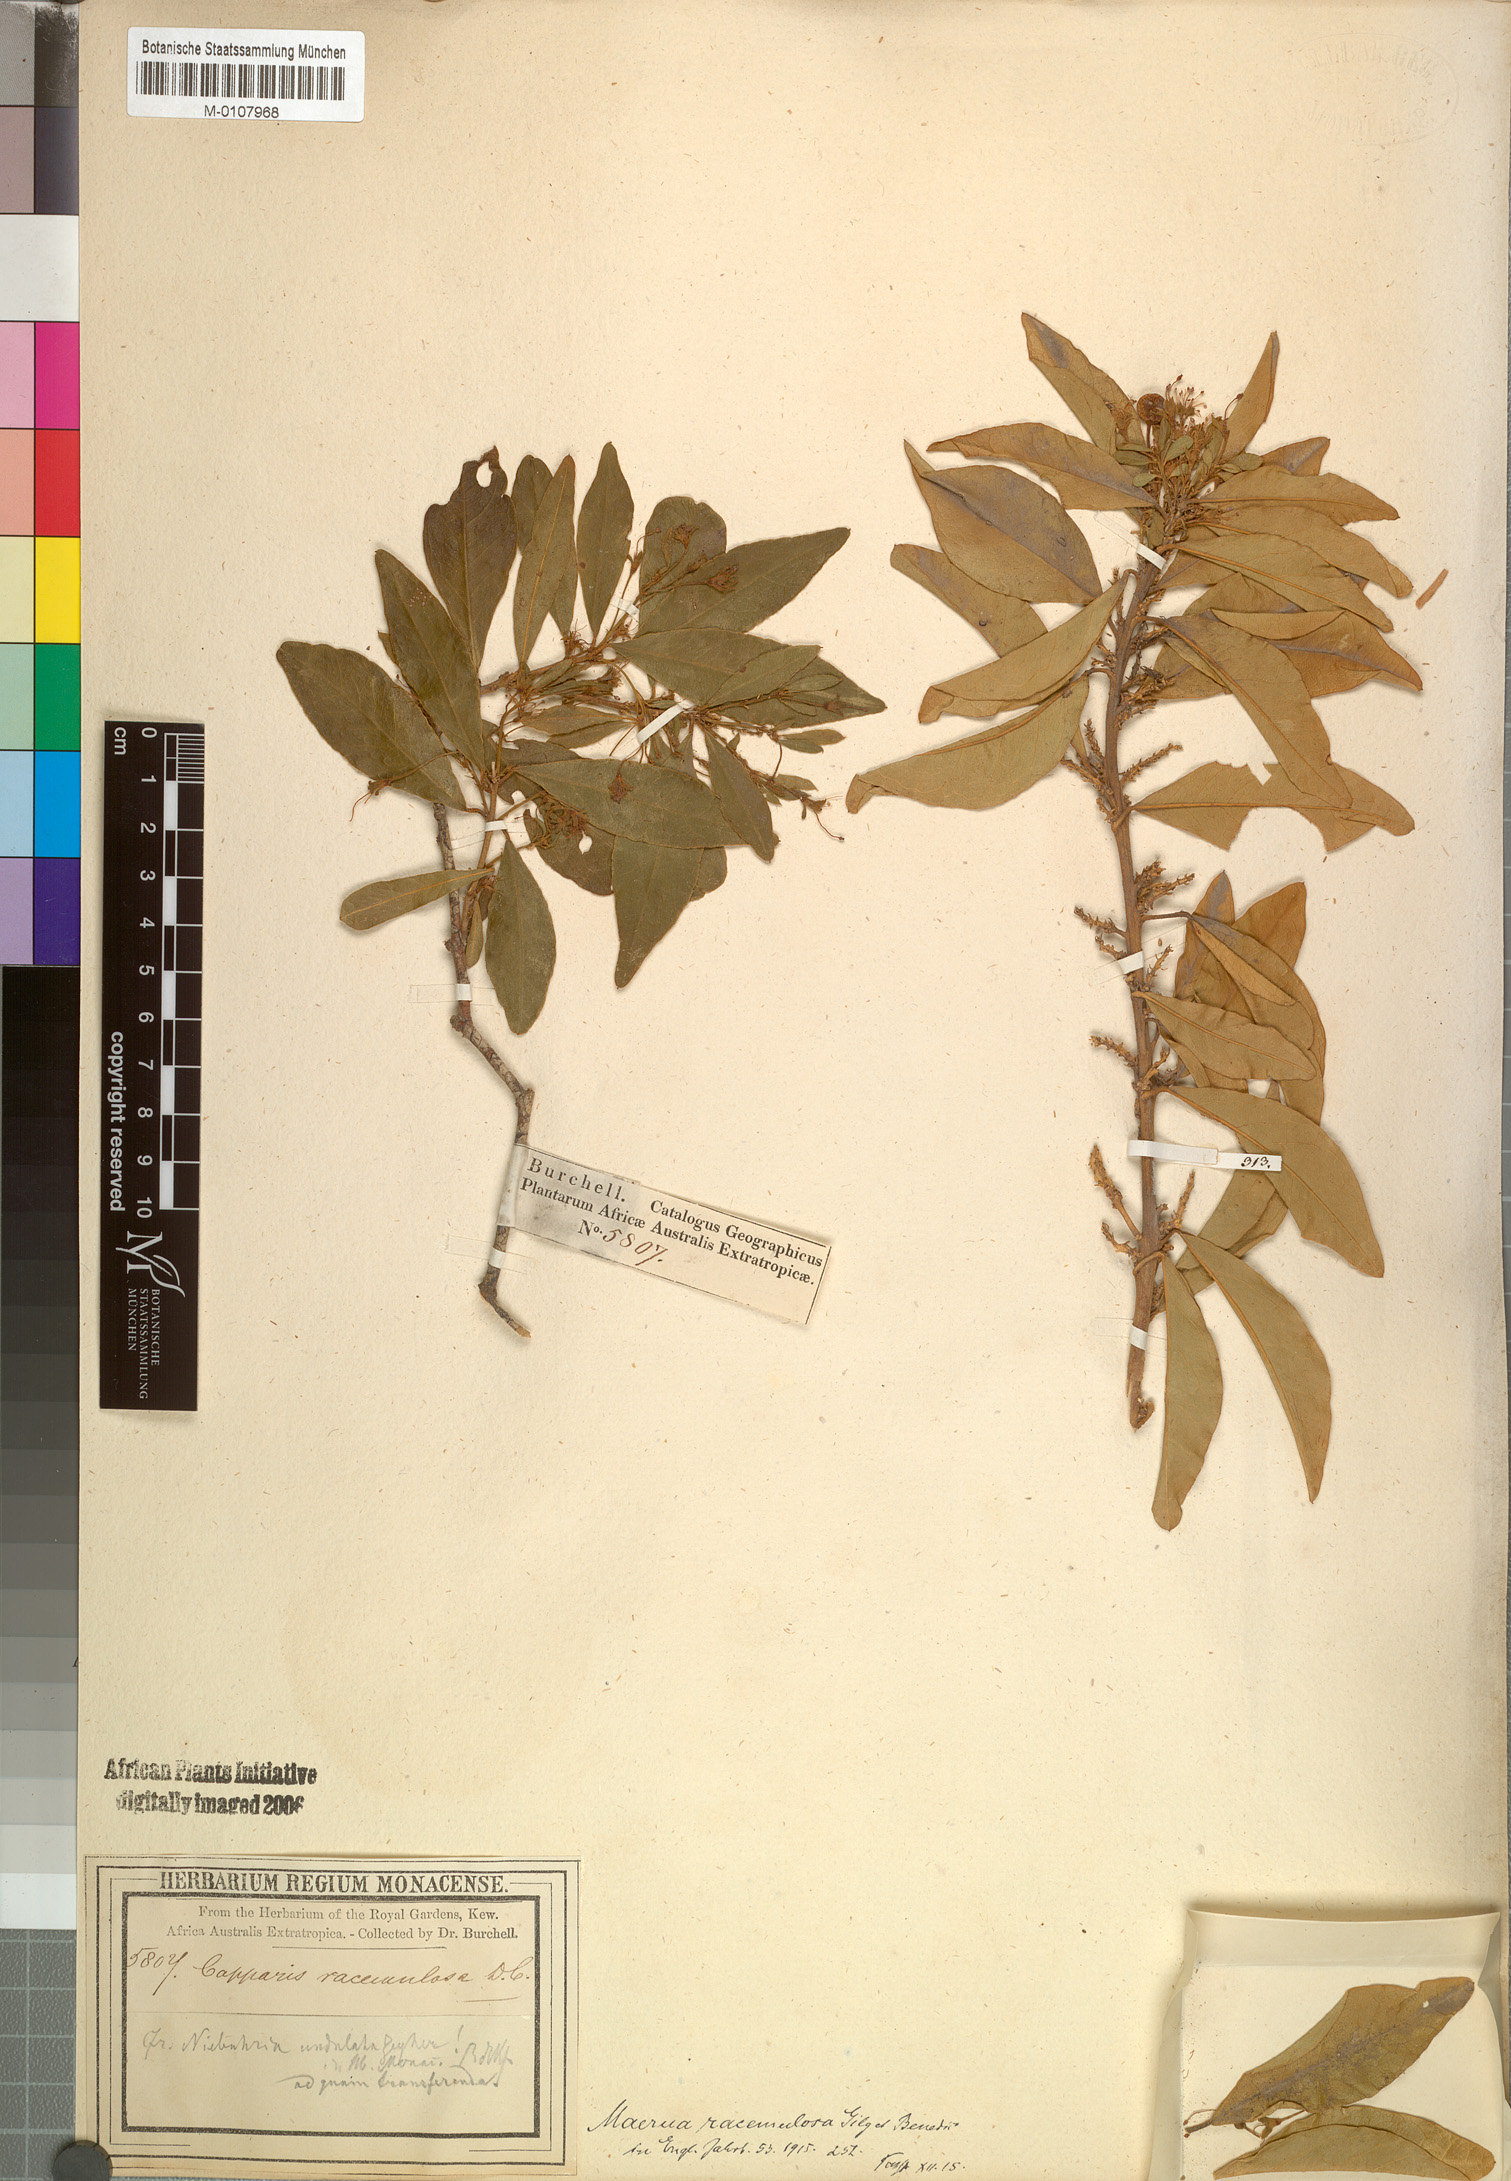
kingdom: Plantae
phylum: Tracheophyta
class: Magnoliopsida
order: Brassicales
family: Capparaceae
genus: Maerua
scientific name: Maerua racemulosa
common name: Forest bush-cherry
